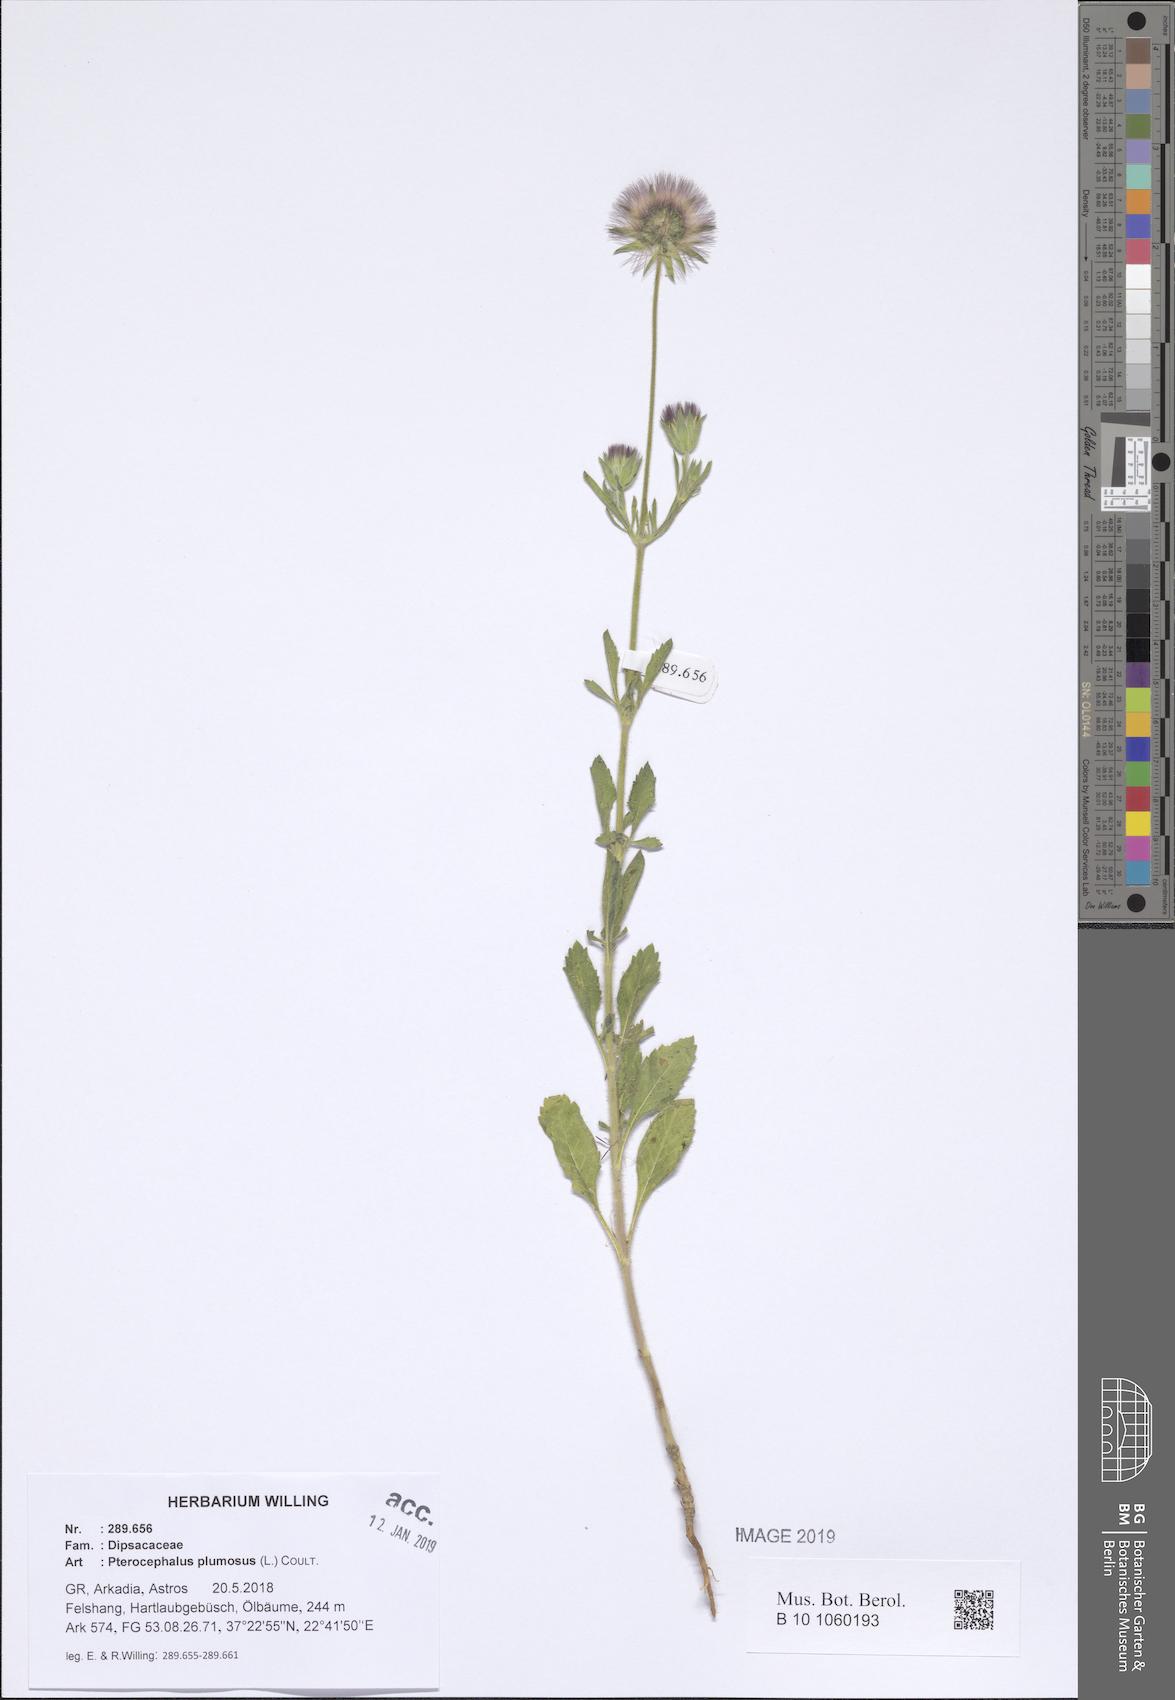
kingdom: Plantae
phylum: Tracheophyta
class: Magnoliopsida
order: Dipsacales
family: Caprifoliaceae
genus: Pterocephalus
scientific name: Pterocephalus plumosus
